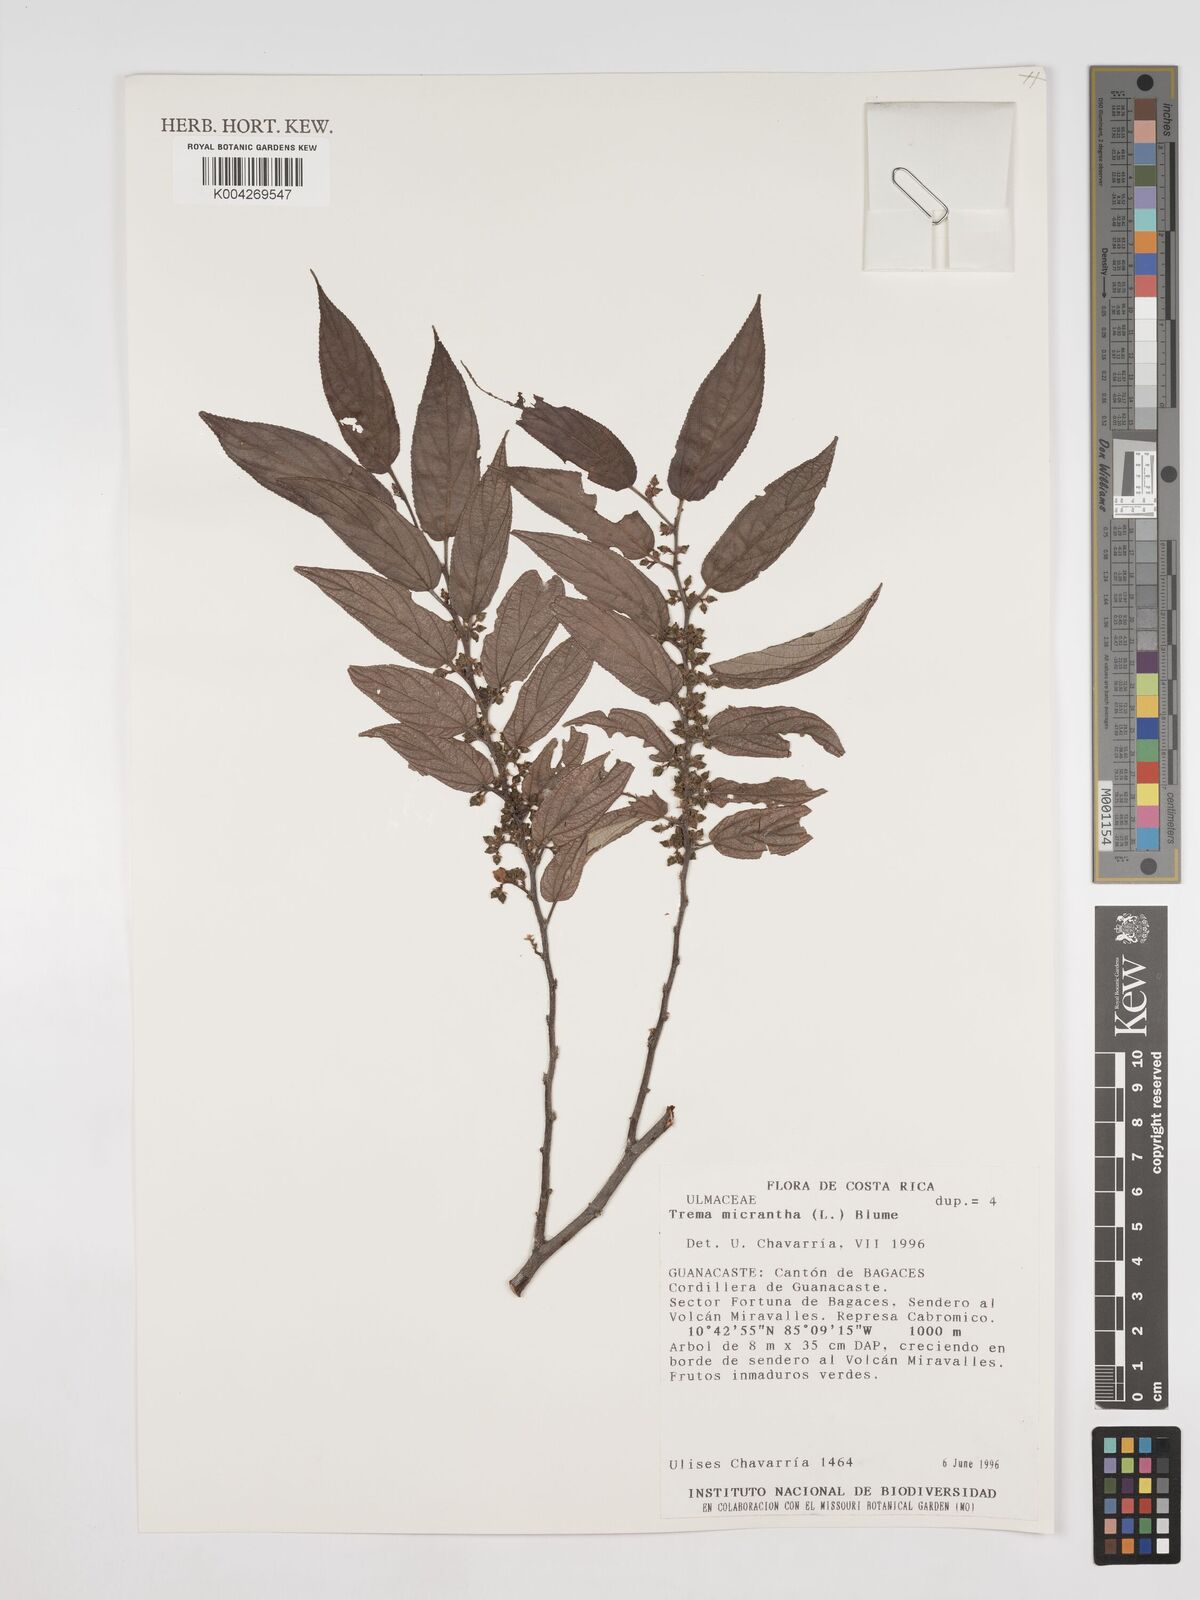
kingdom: Plantae
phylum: Tracheophyta
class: Magnoliopsida
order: Rosales
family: Cannabaceae
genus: Trema
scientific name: Trema micranthum
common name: Jamaican nettletree
